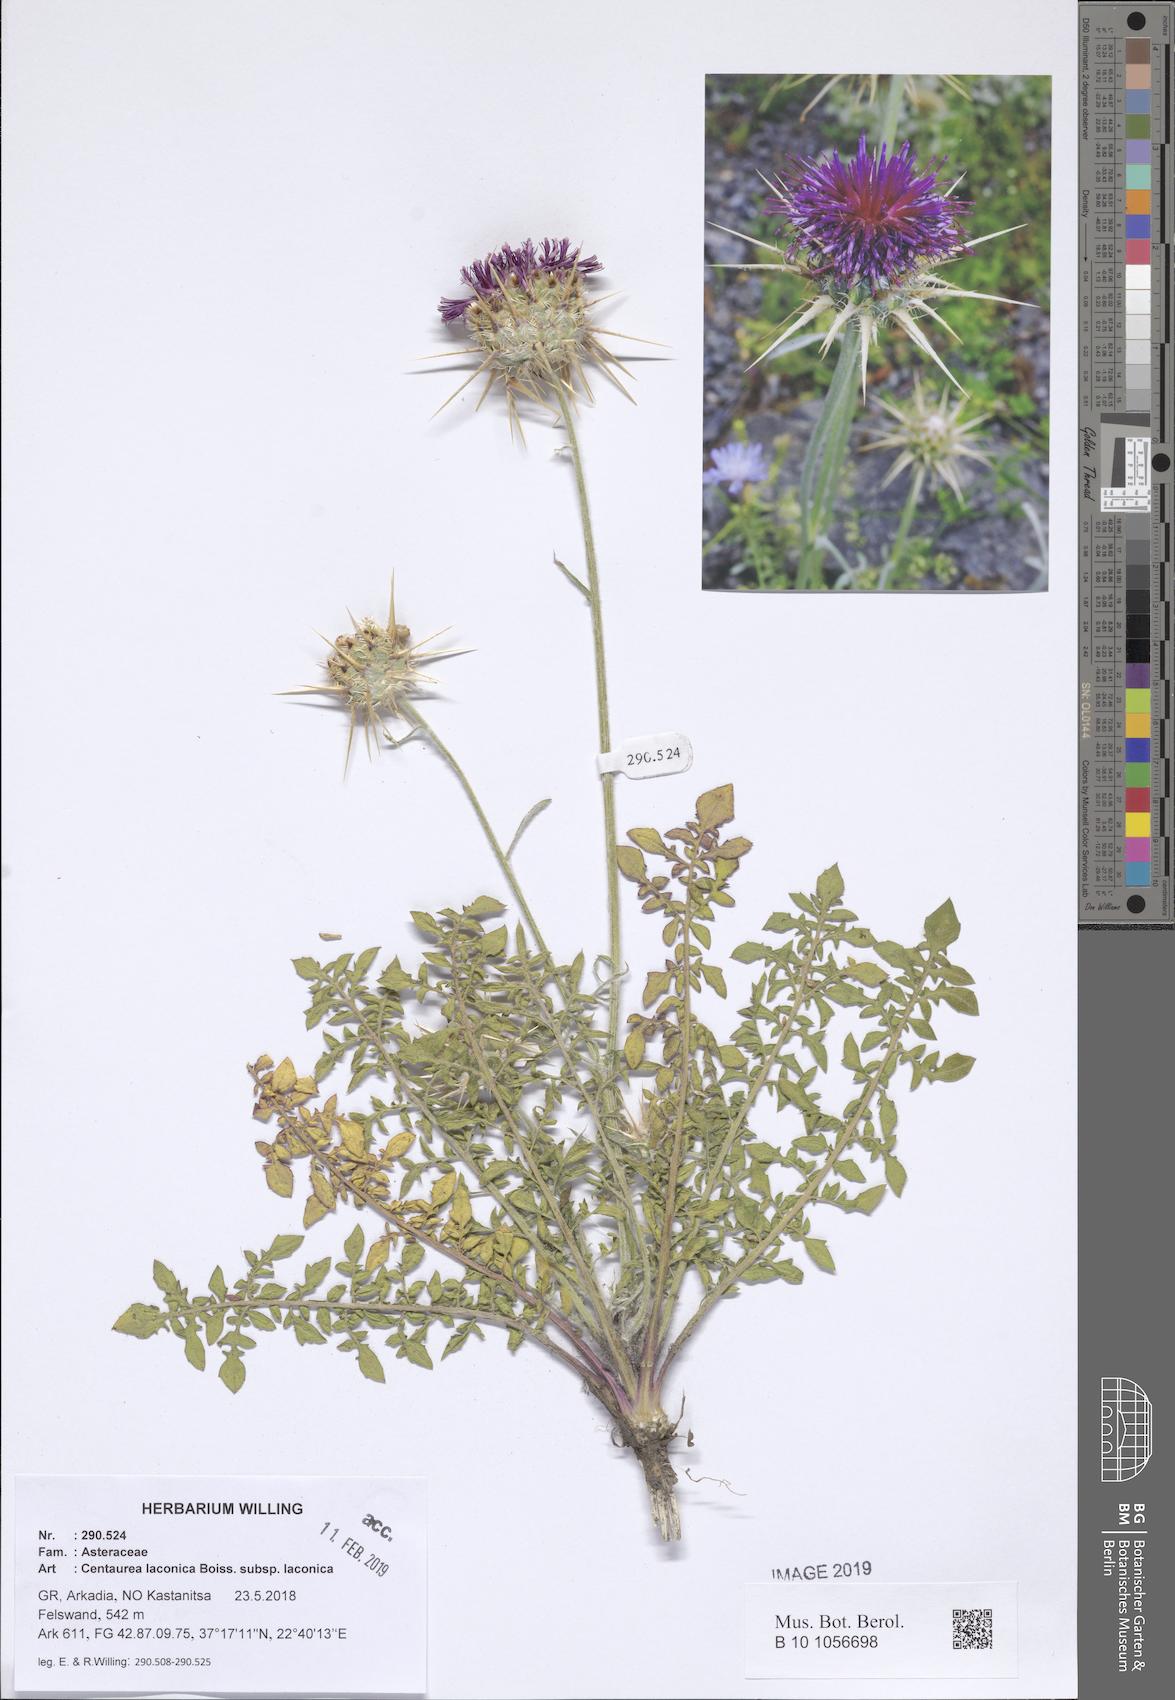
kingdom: Plantae
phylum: Tracheophyta
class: Magnoliopsida
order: Asterales
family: Asteraceae
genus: Centaurea
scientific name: Centaurea laconica
